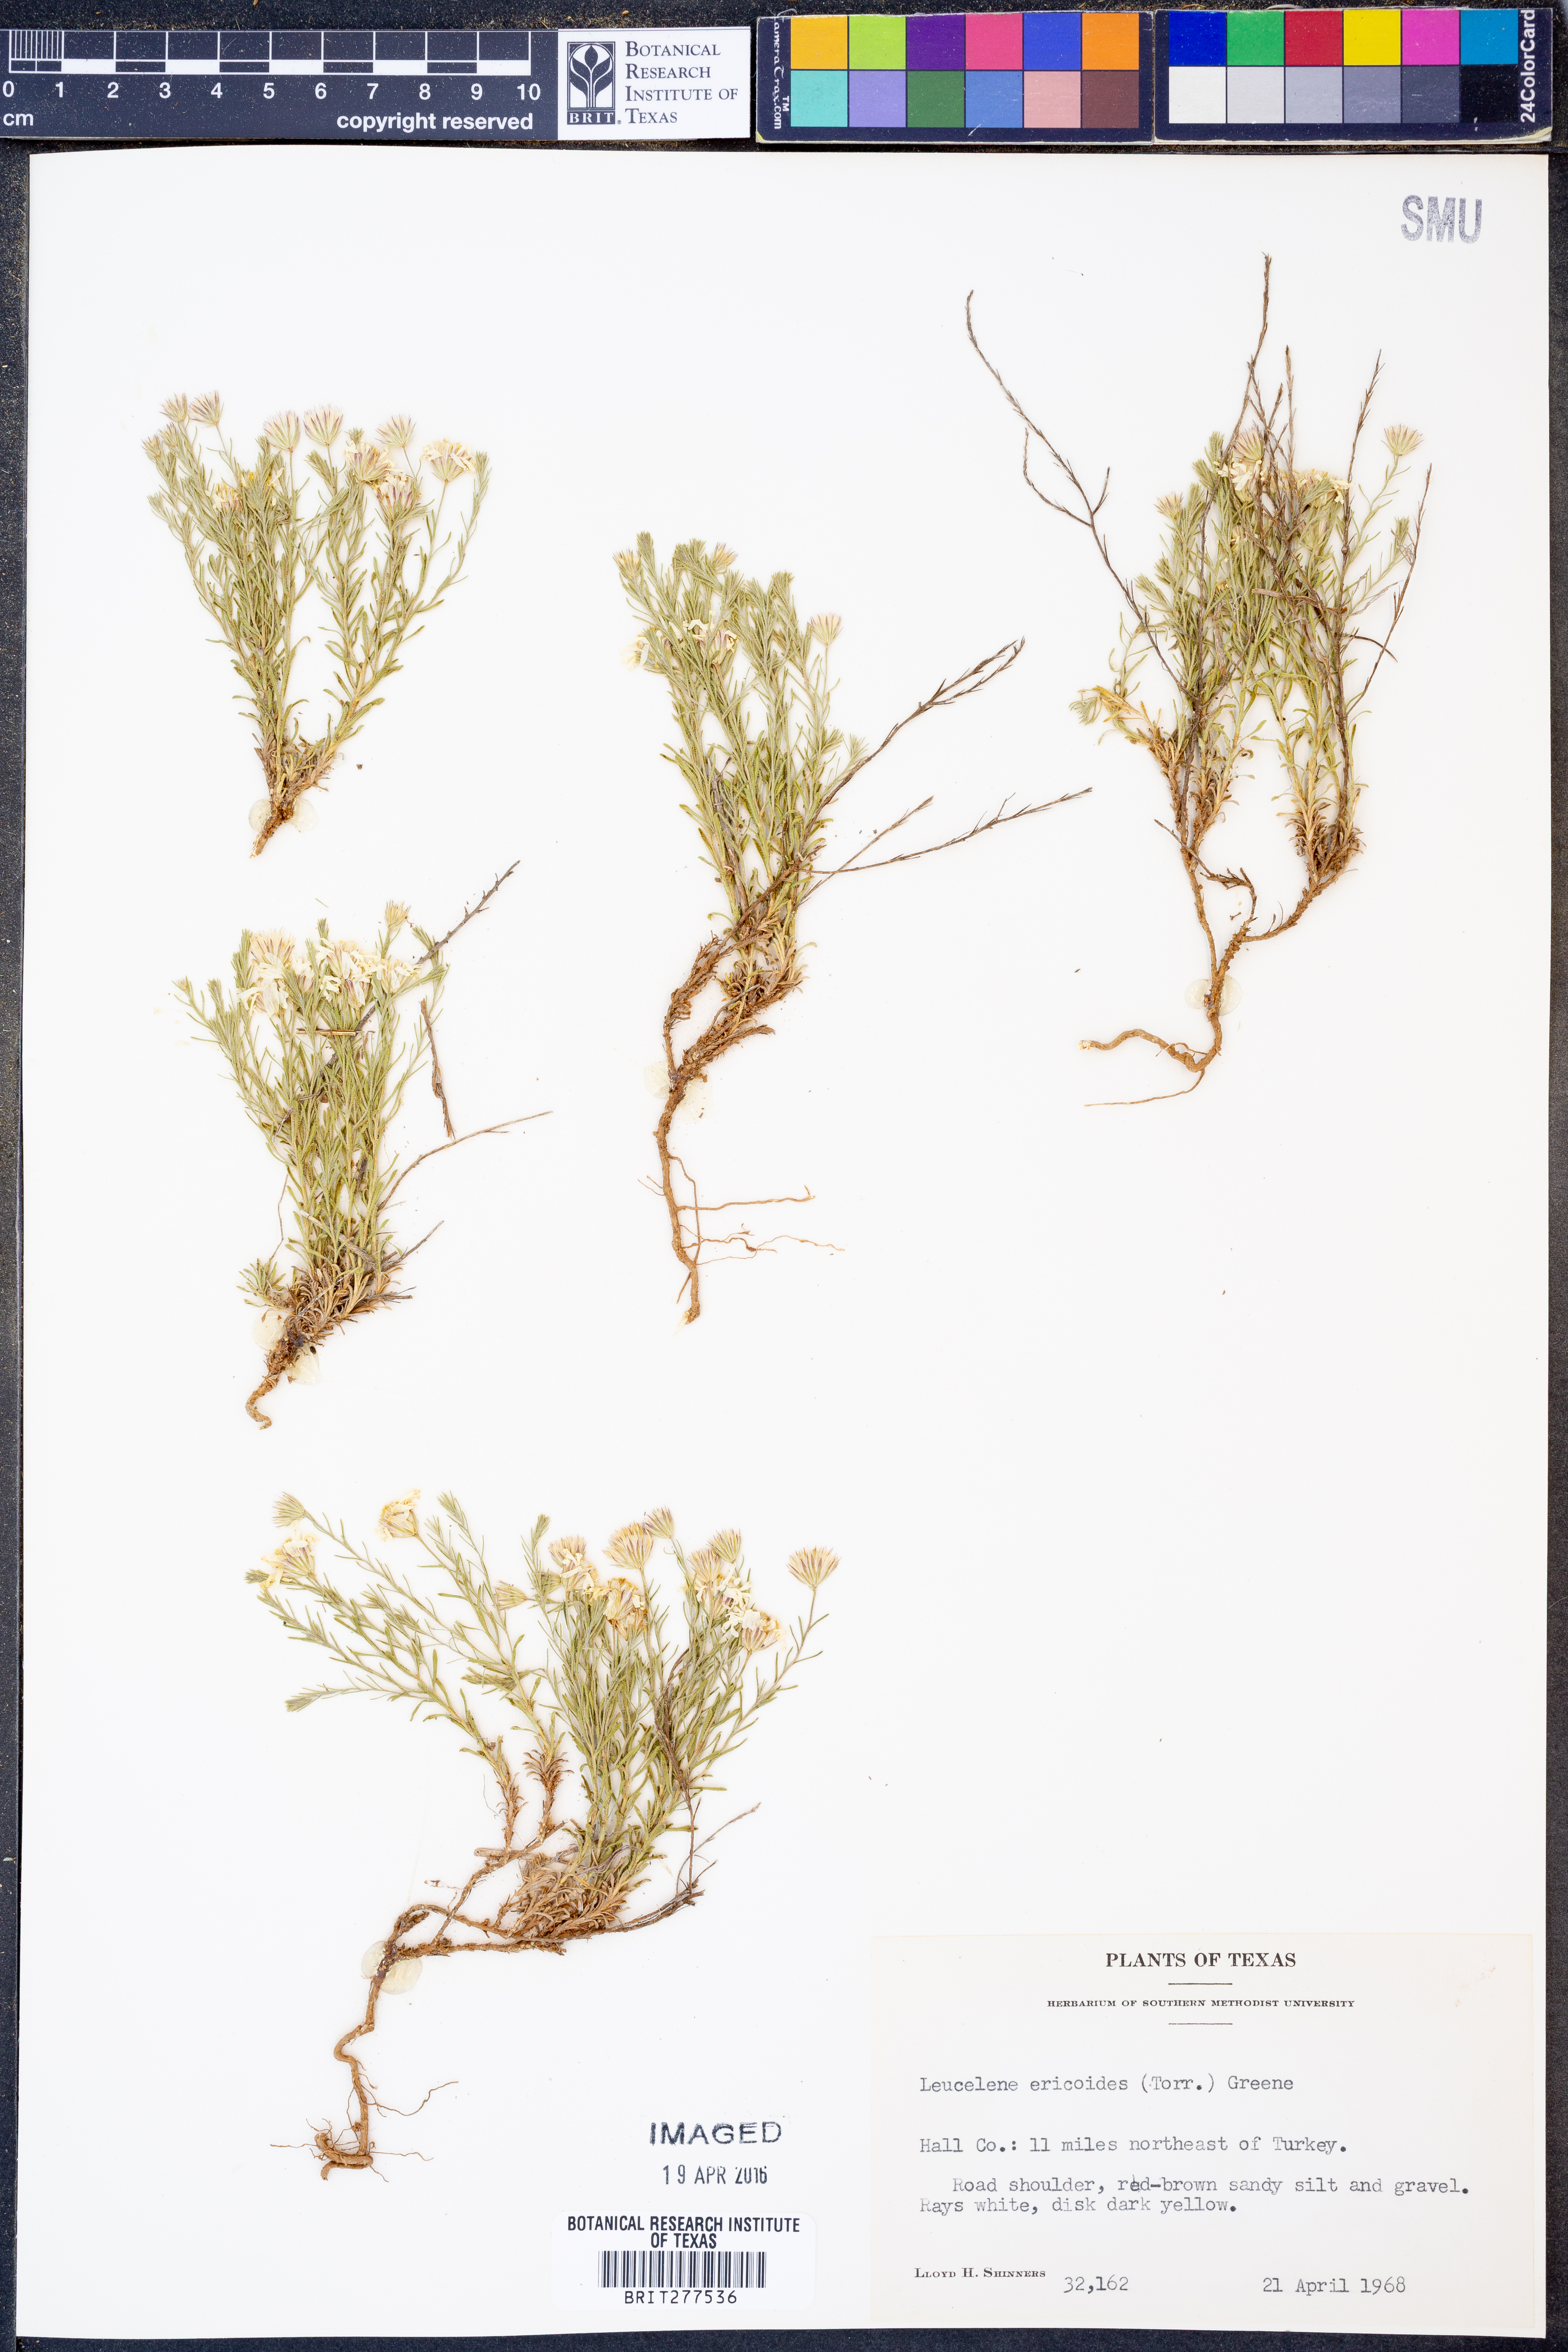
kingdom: Plantae
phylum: Tracheophyta
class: Magnoliopsida
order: Asterales
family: Asteraceae
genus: Chaetopappa
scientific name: Chaetopappa ericoides
